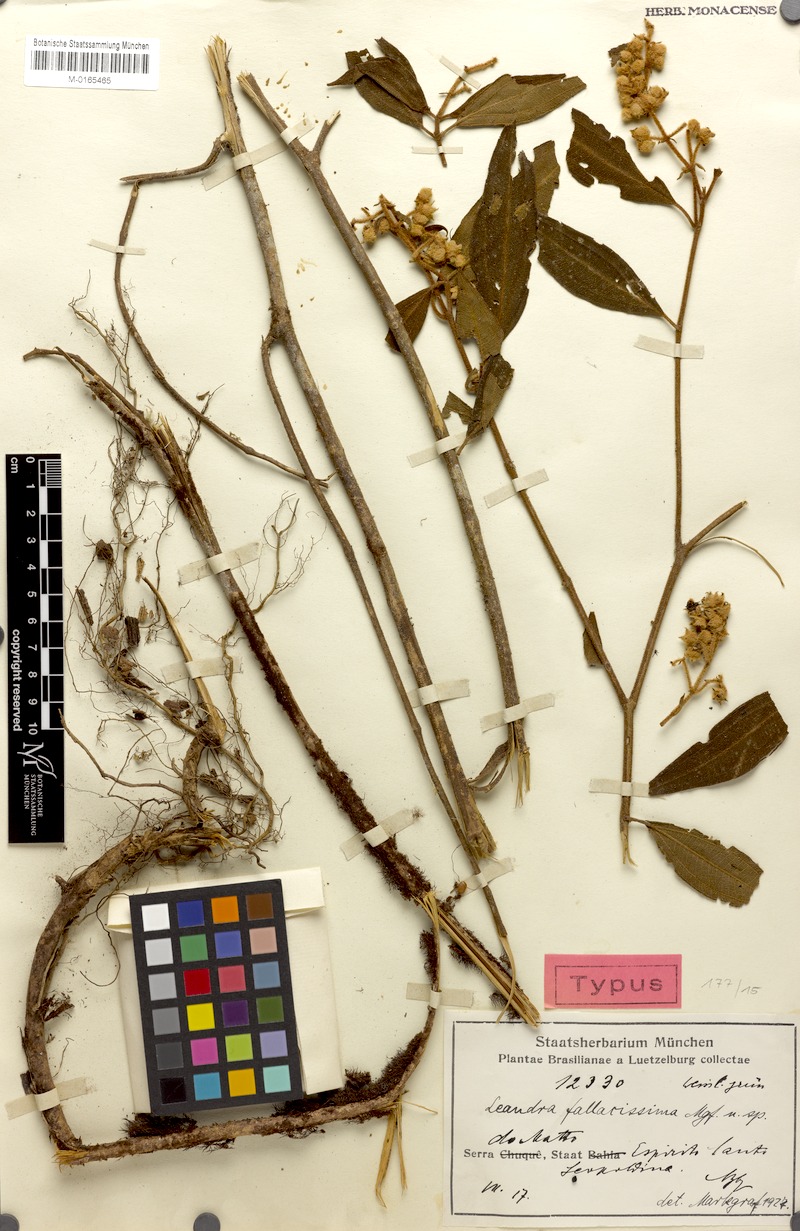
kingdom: Plantae
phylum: Tracheophyta
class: Magnoliopsida
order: Myrtales
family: Melastomataceae
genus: Miconia
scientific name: Miconia fallacissima
